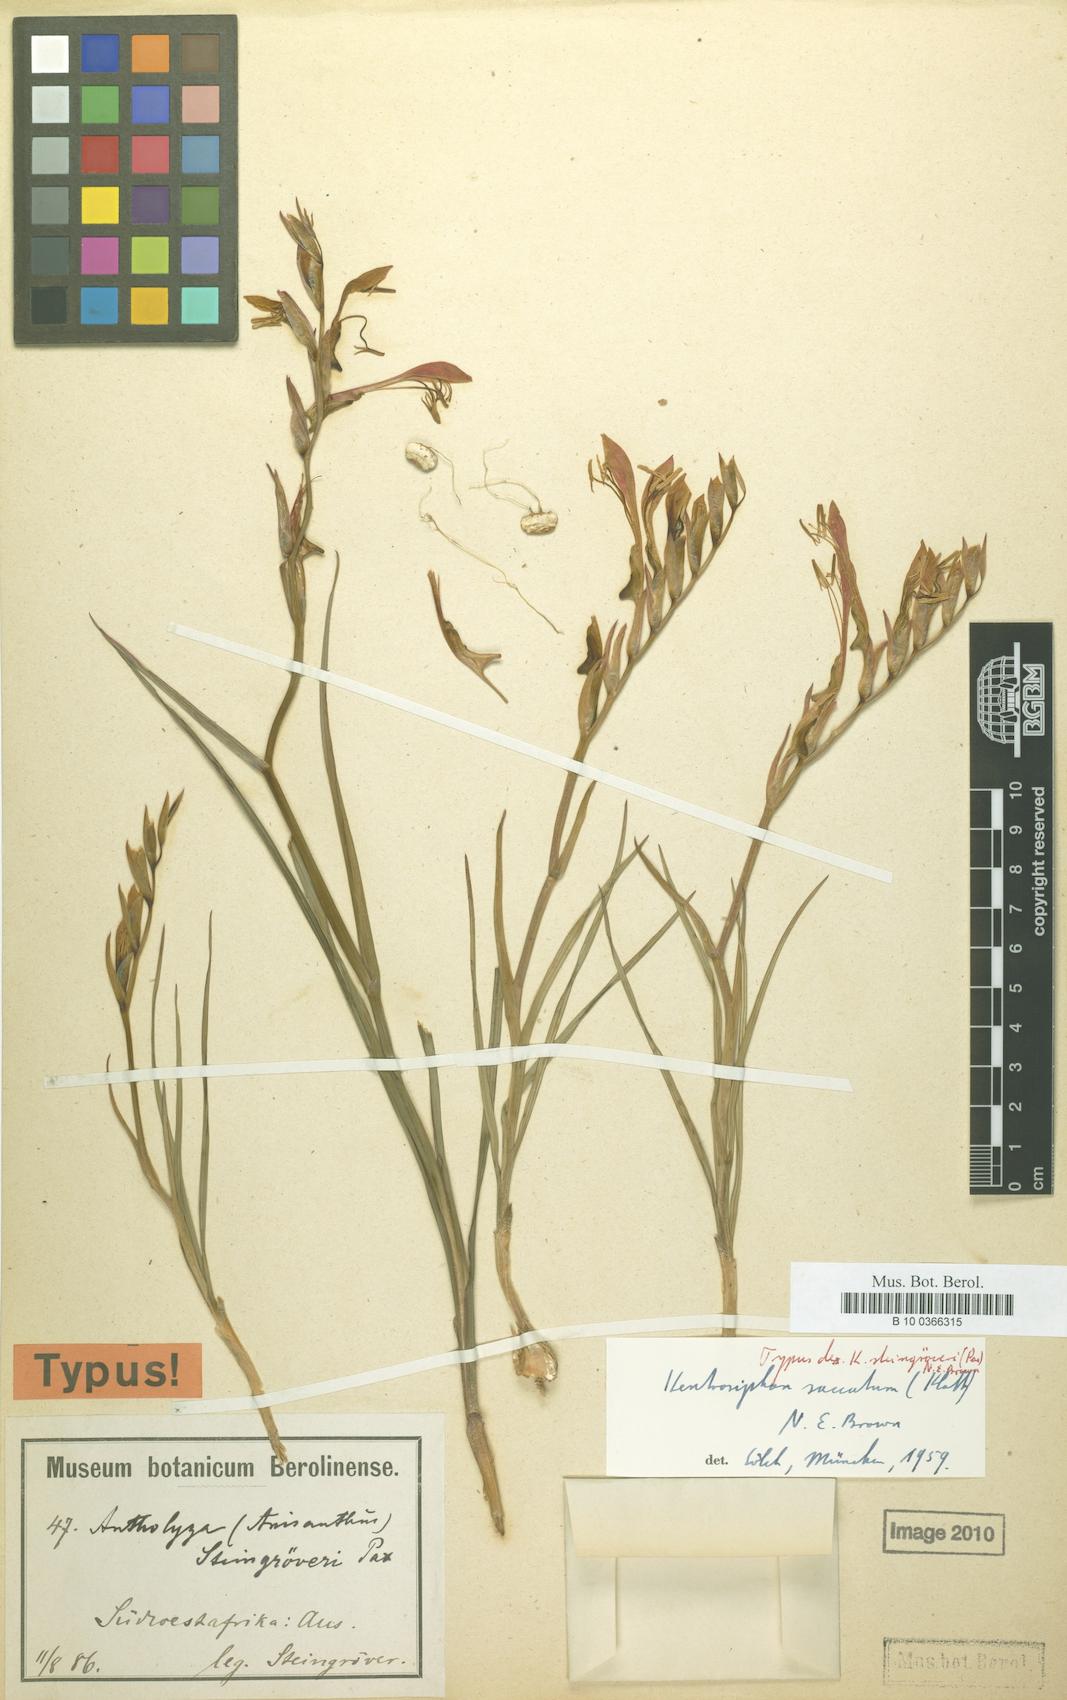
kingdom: Plantae
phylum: Tracheophyta
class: Liliopsida
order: Asparagales
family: Iridaceae
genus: Gladiolus
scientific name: Gladiolus saccatus
